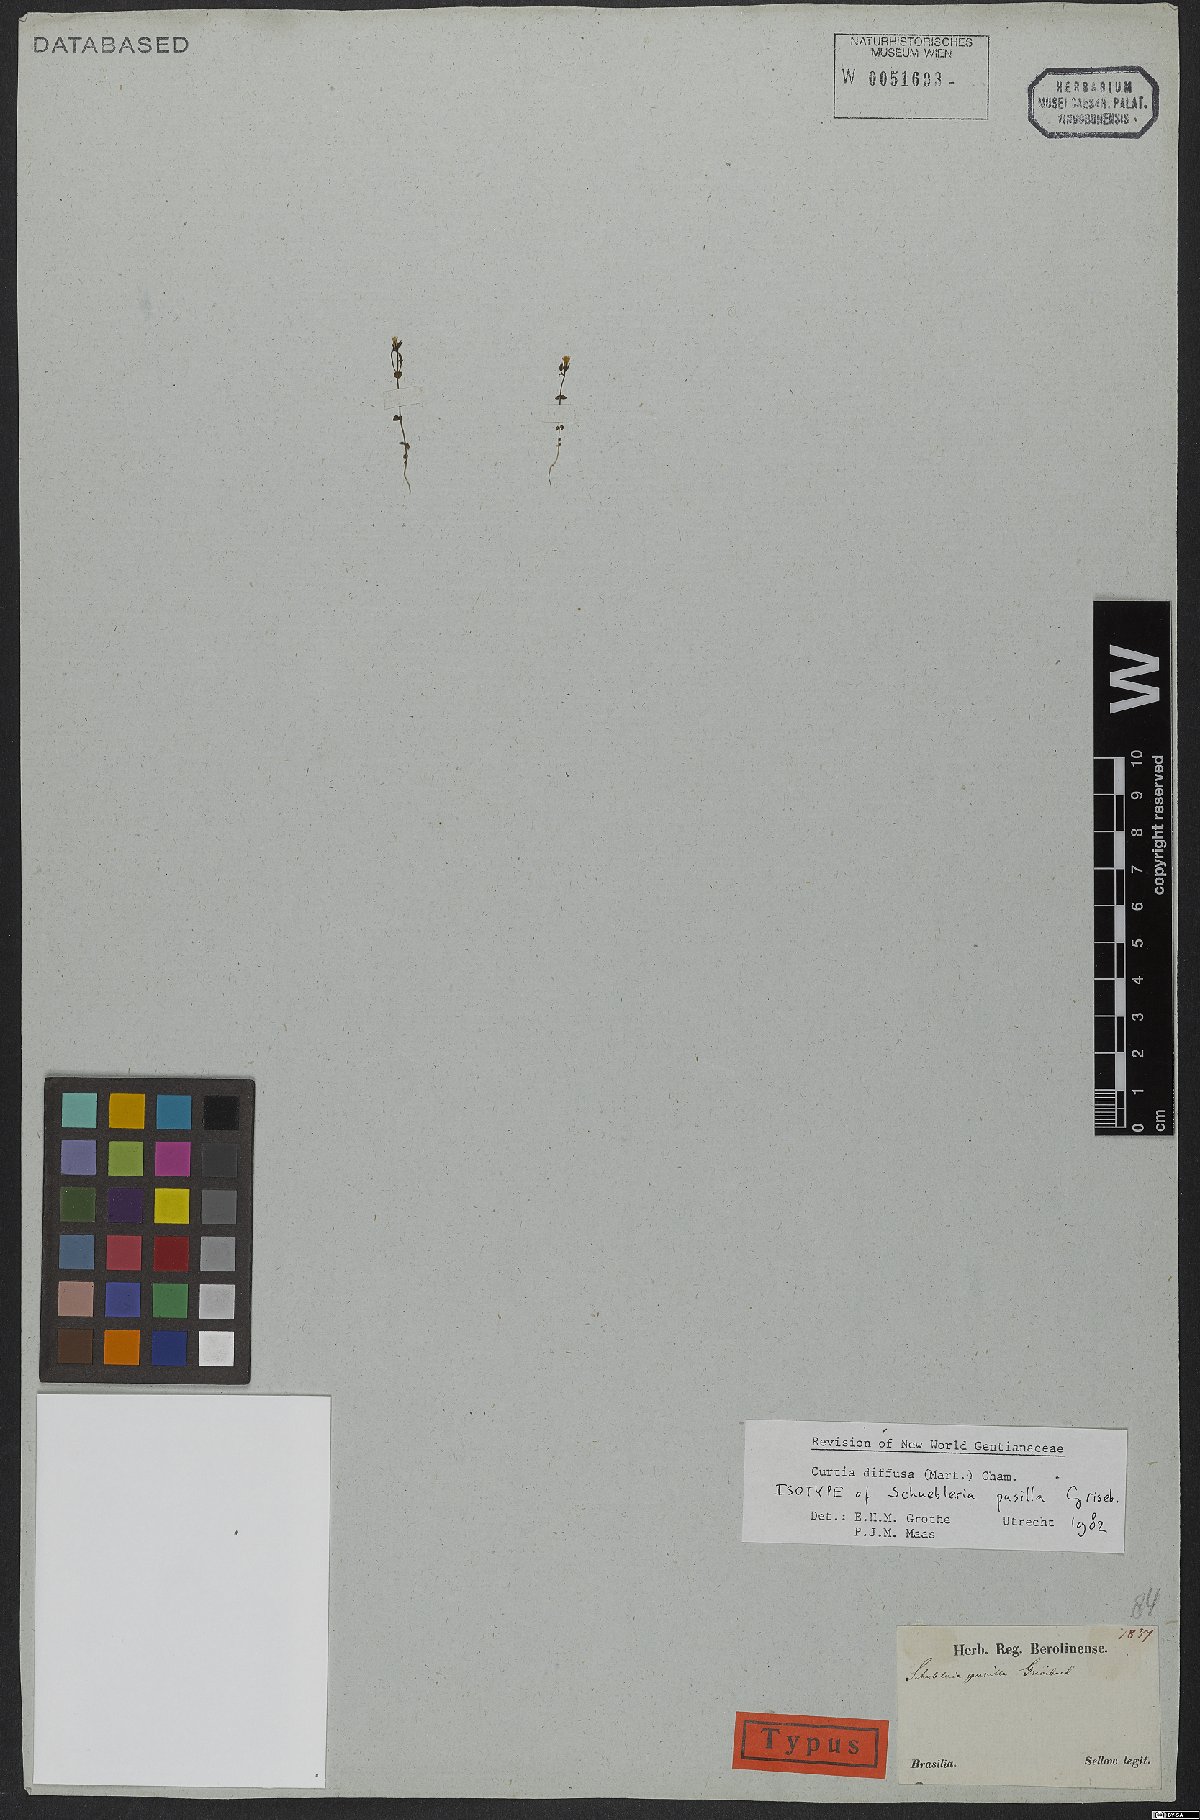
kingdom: Plantae
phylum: Tracheophyta
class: Magnoliopsida
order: Gentianales
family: Gentianaceae
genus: Curtia
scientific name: Curtia diffusa
